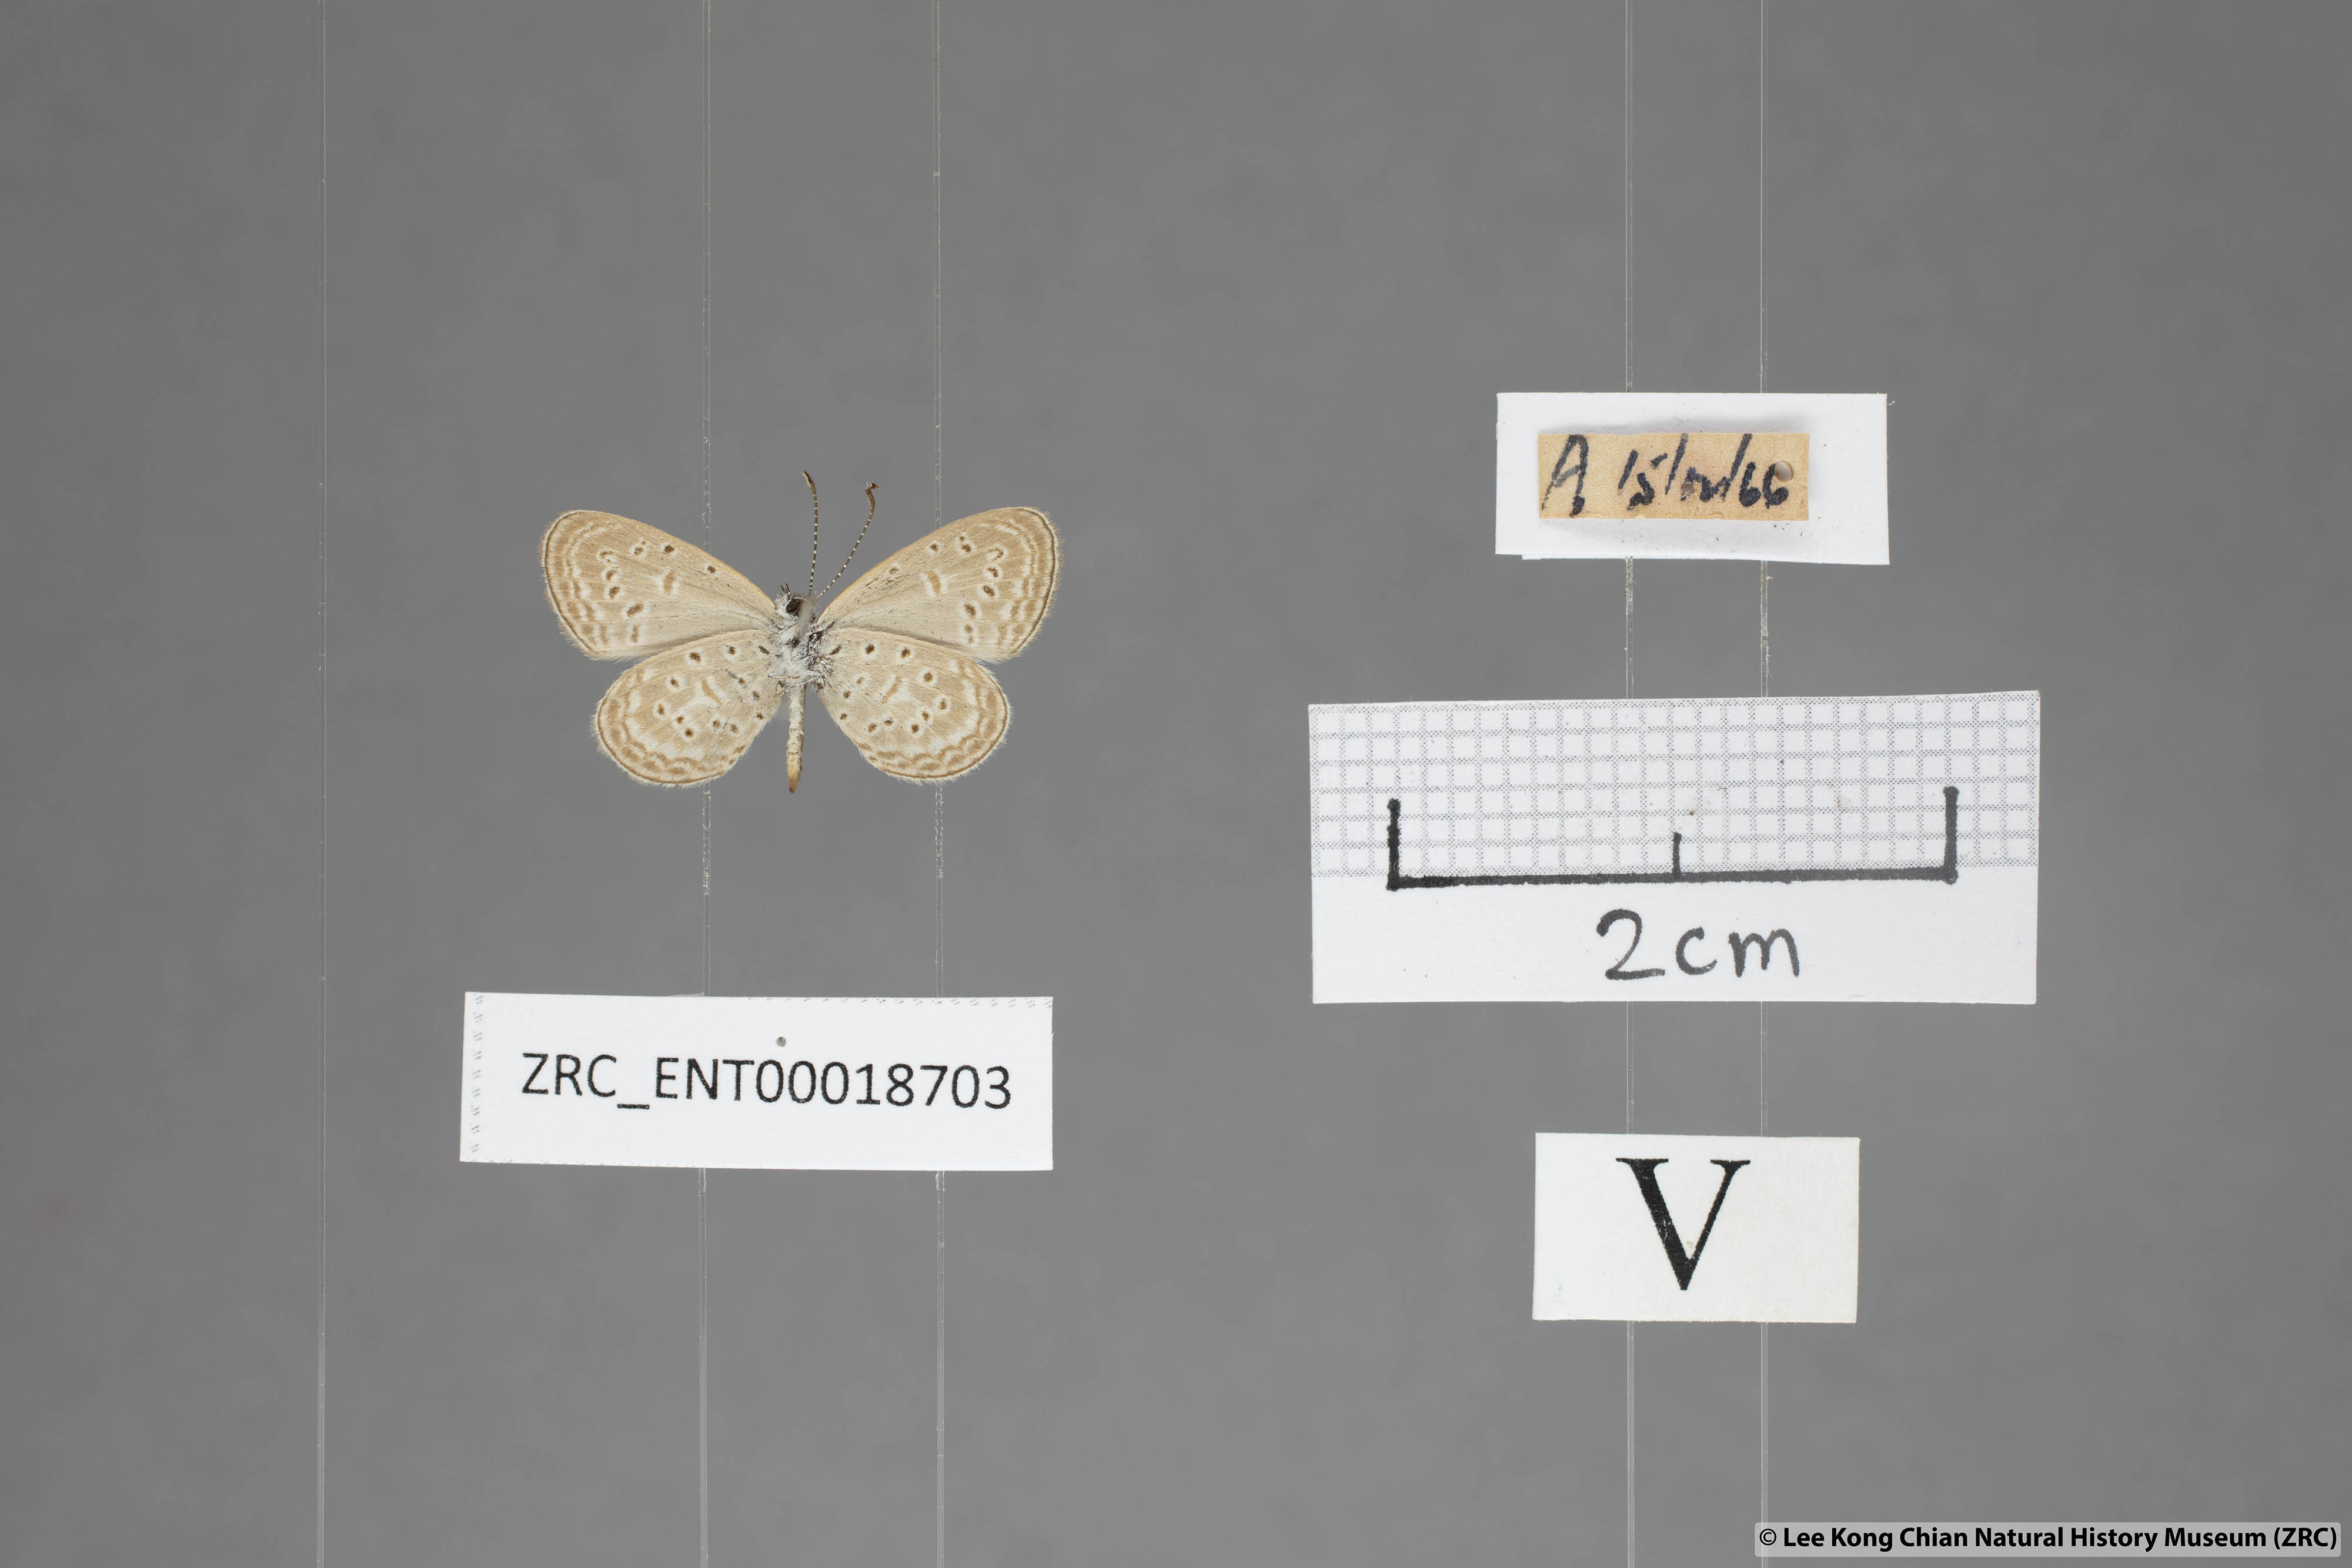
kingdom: Animalia
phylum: Arthropoda
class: Insecta
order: Lepidoptera
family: Lycaenidae
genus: Zizula
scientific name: Zizula hylax
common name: Gaika blue
